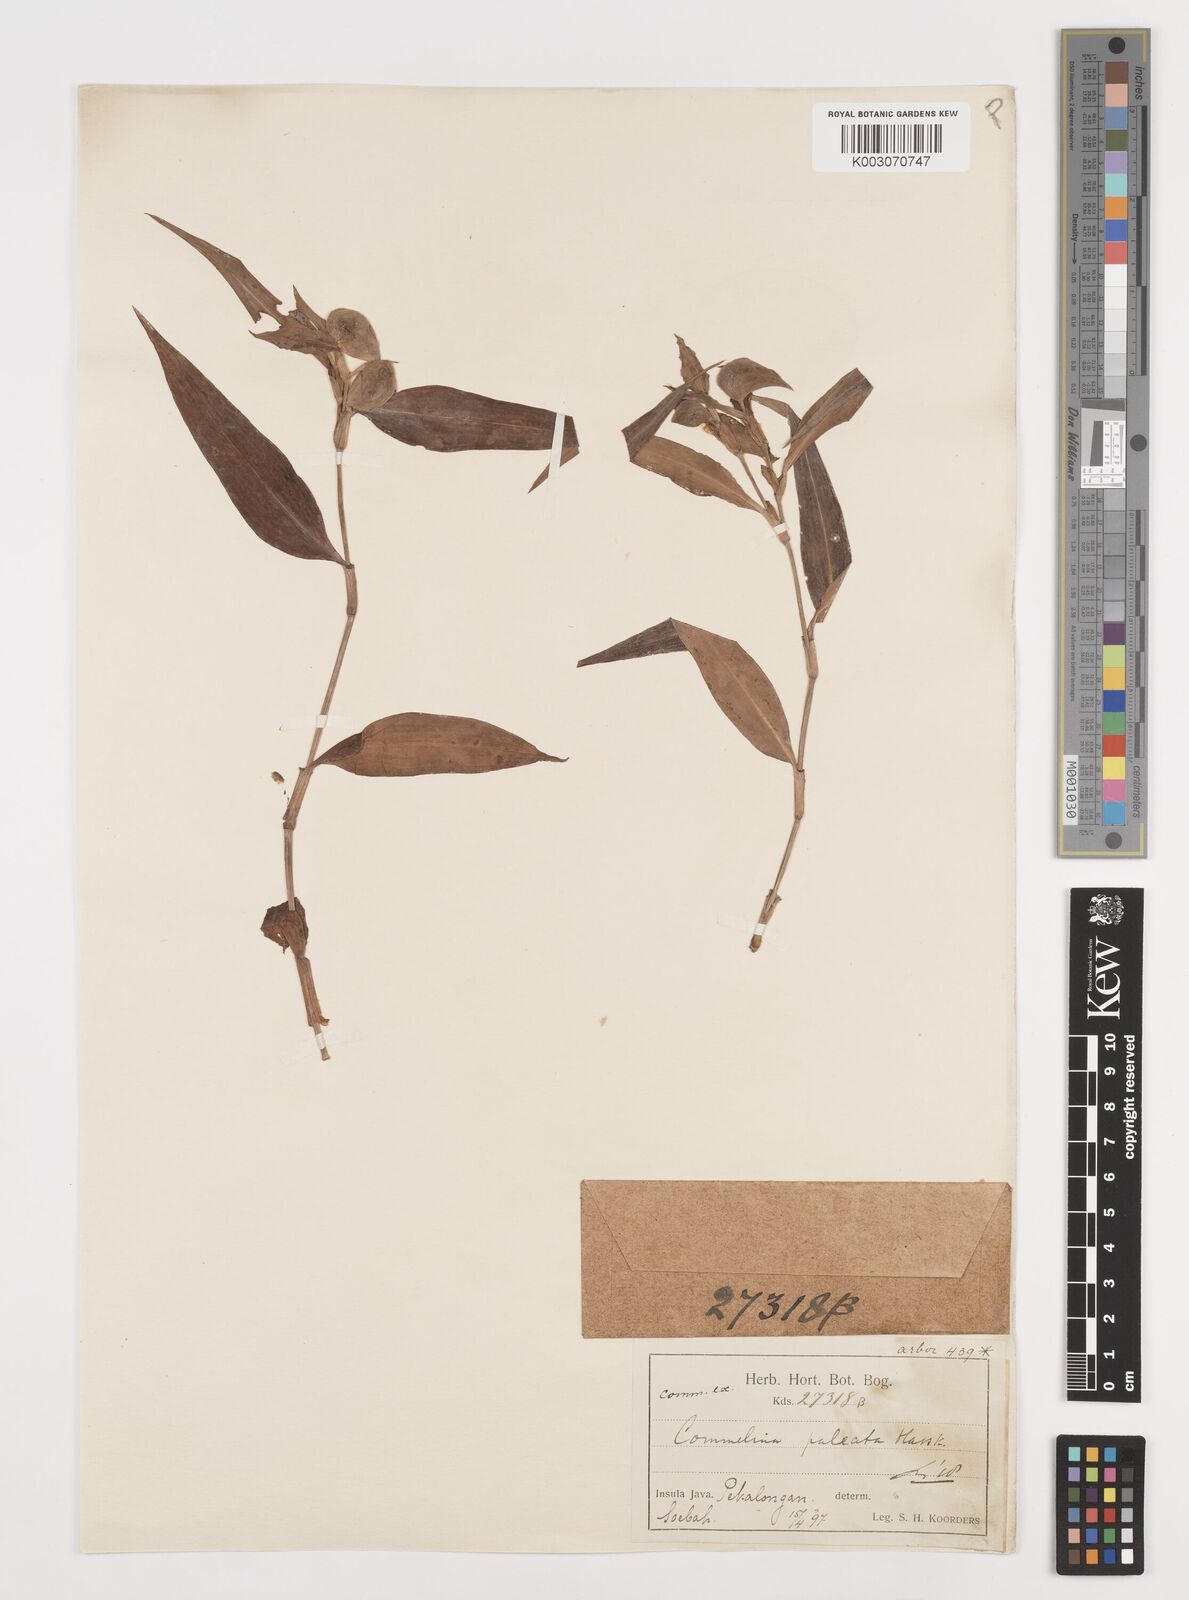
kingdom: Plantae
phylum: Tracheophyta
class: Liliopsida
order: Commelinales
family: Commelinaceae
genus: Commelina
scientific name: Commelina paleata
